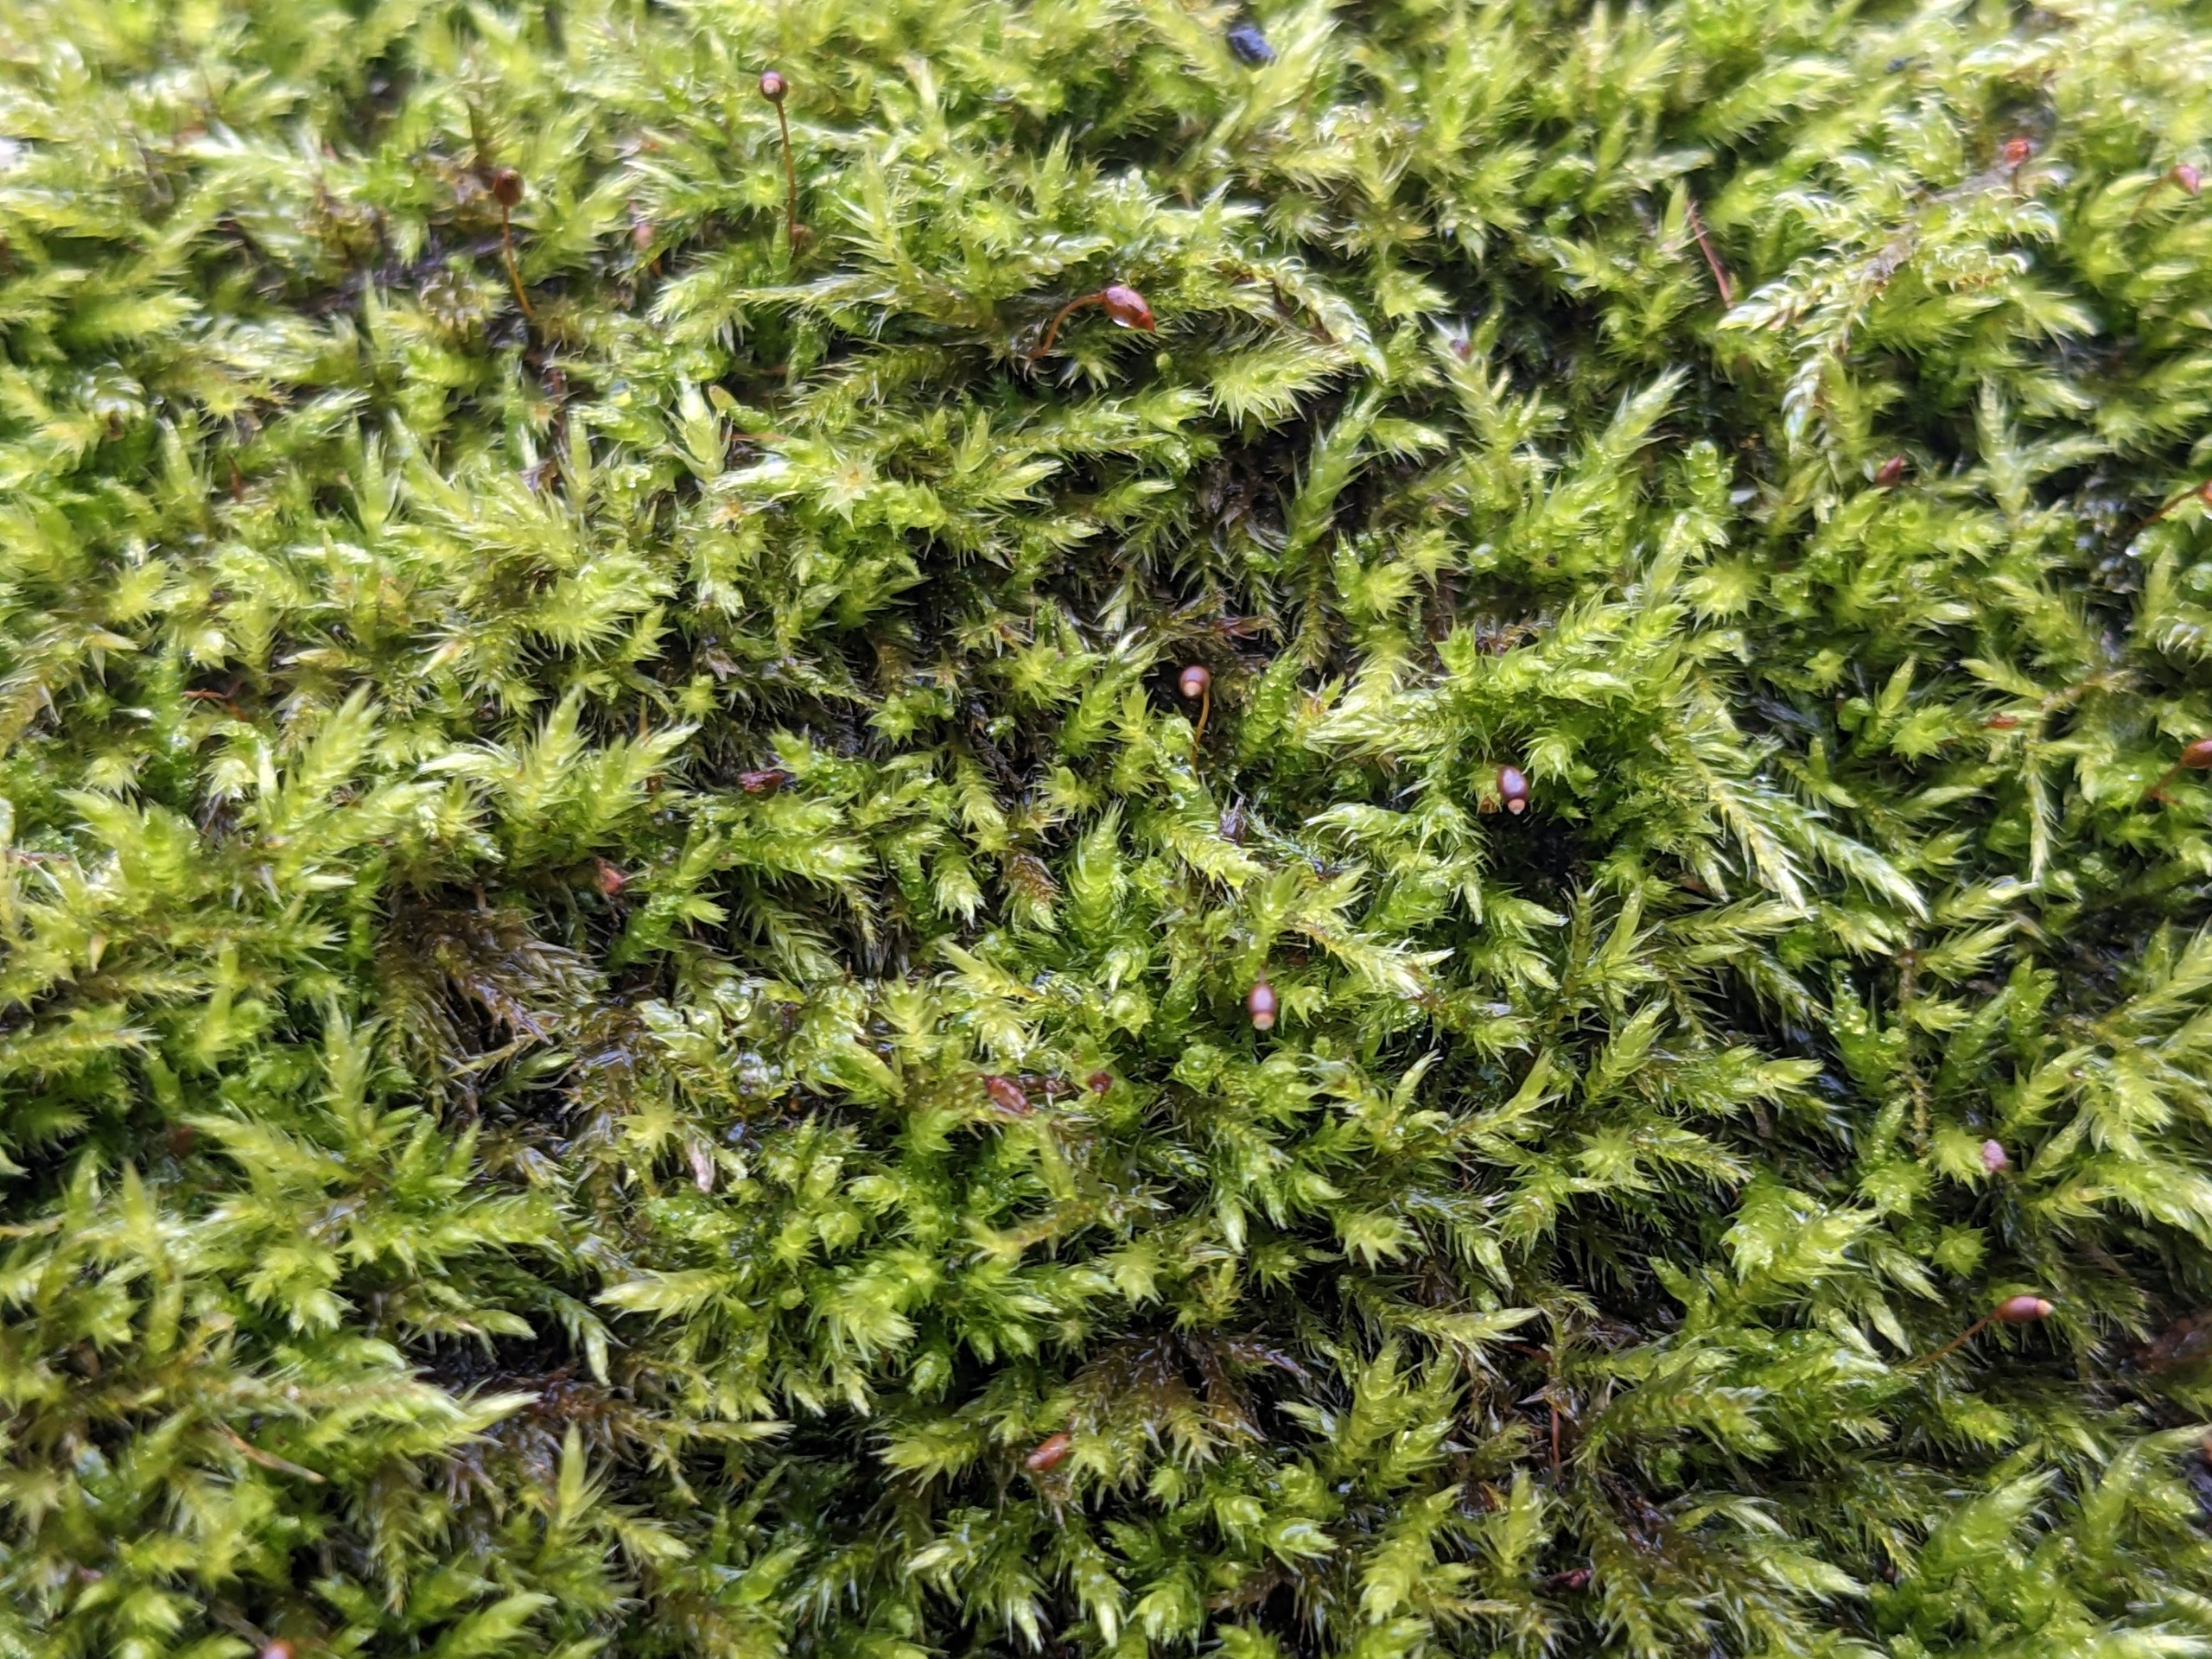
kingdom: Plantae
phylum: Bryophyta
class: Bryopsida
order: Hypnales
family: Brachytheciaceae
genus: Sciuro-hypnum
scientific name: Sciuro-hypnum populeum
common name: Park-kortkapsel
